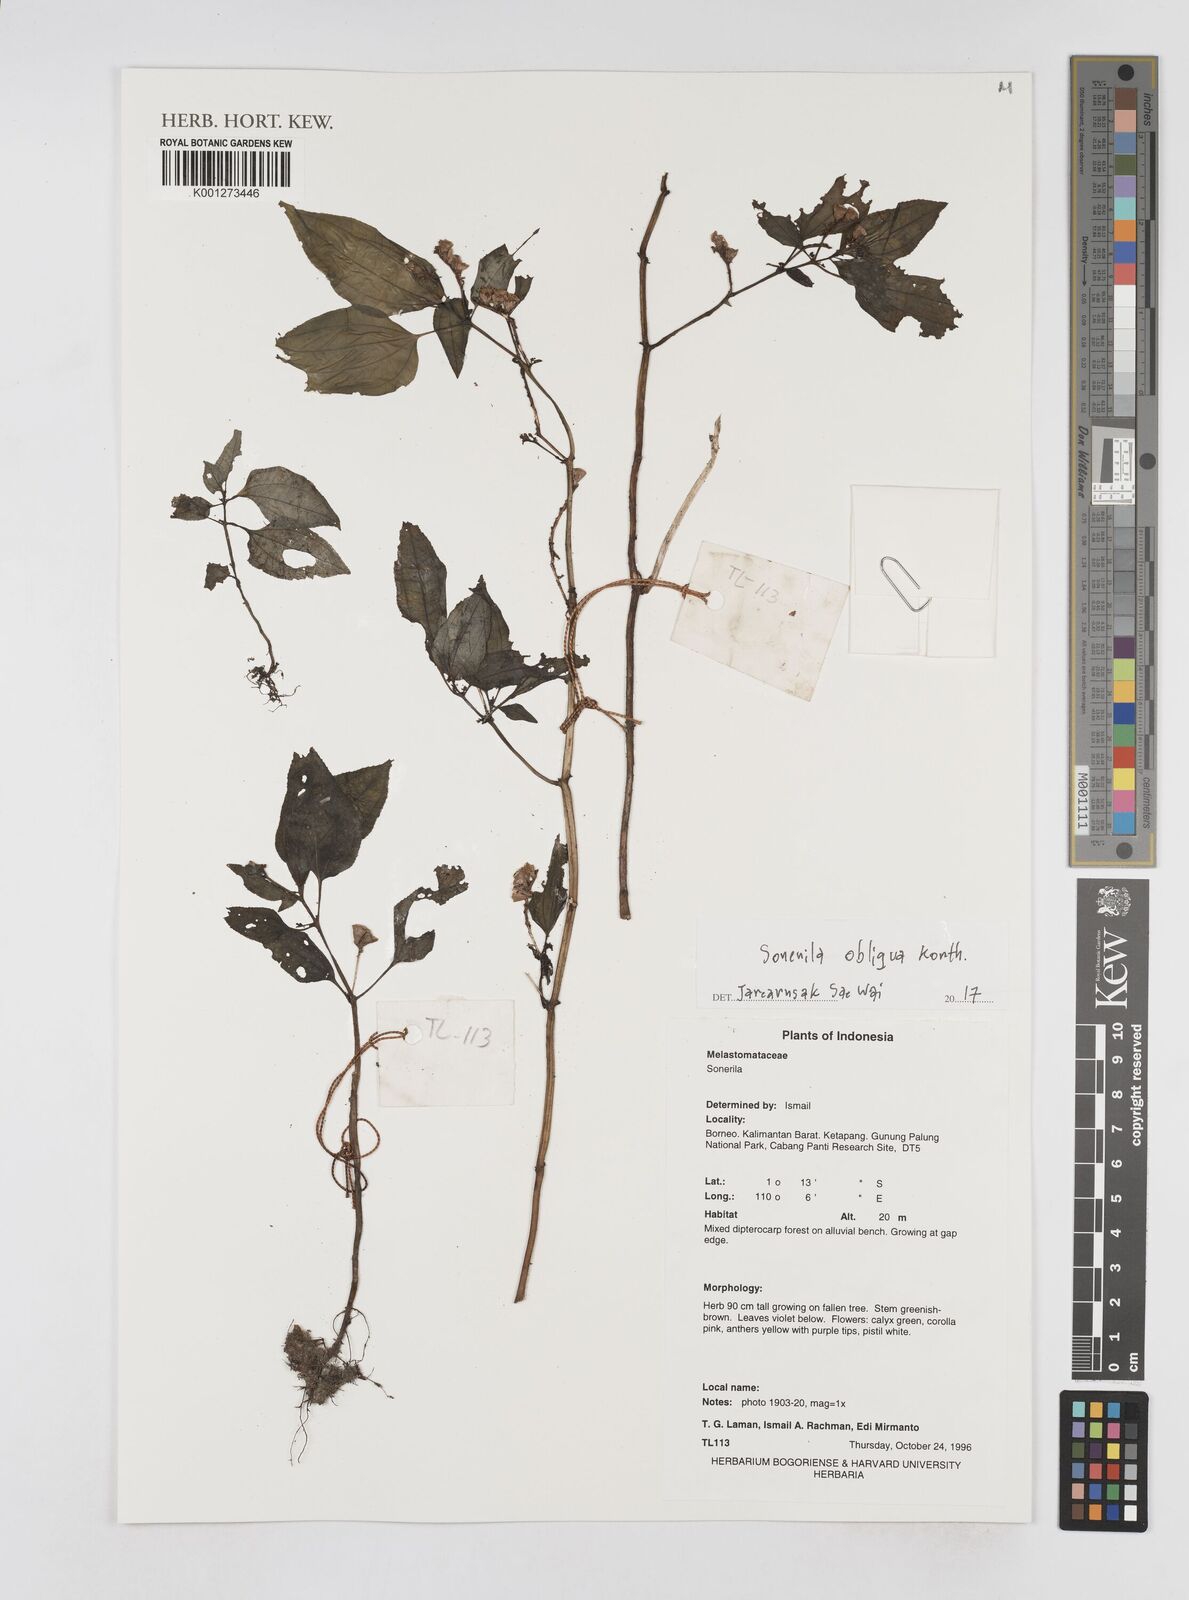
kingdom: Plantae
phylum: Tracheophyta
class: Magnoliopsida
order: Myrtales
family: Melastomataceae
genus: Sonerila
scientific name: Sonerila obliqua
